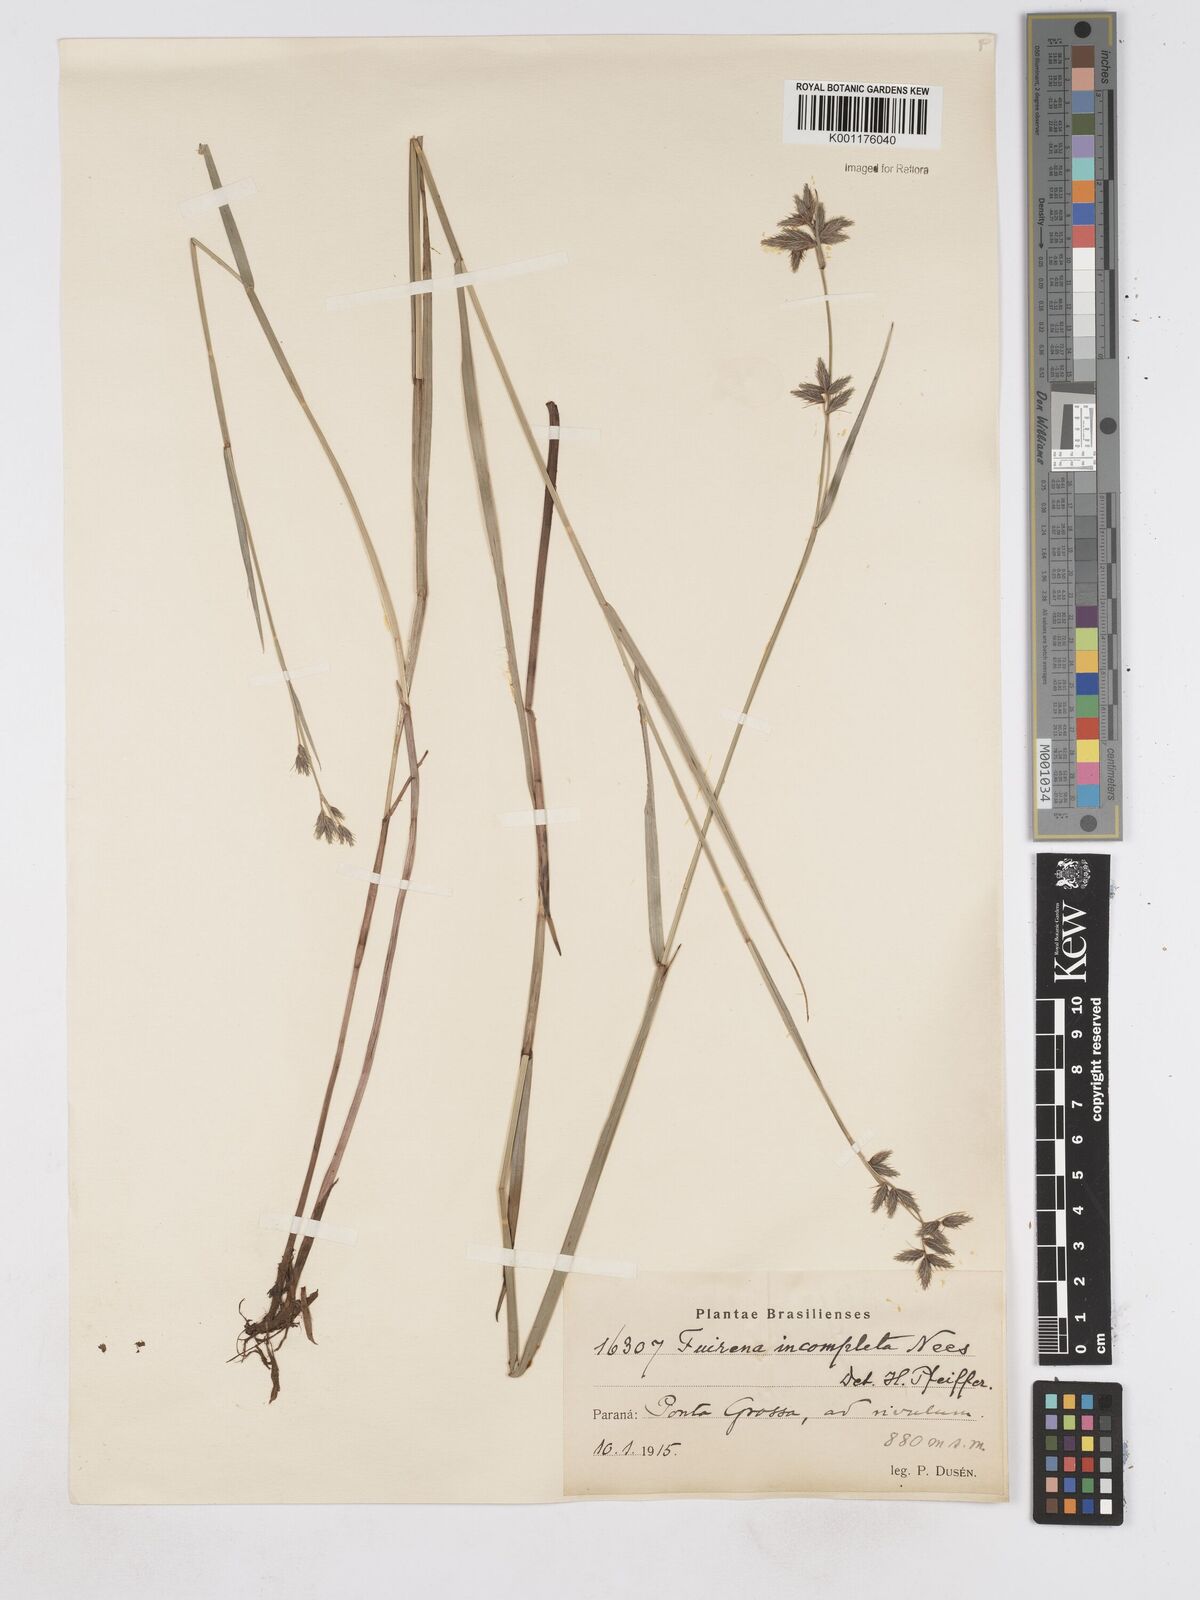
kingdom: Plantae
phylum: Tracheophyta
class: Liliopsida
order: Poales
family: Cyperaceae
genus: Fuirena
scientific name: Fuirena incompleta
